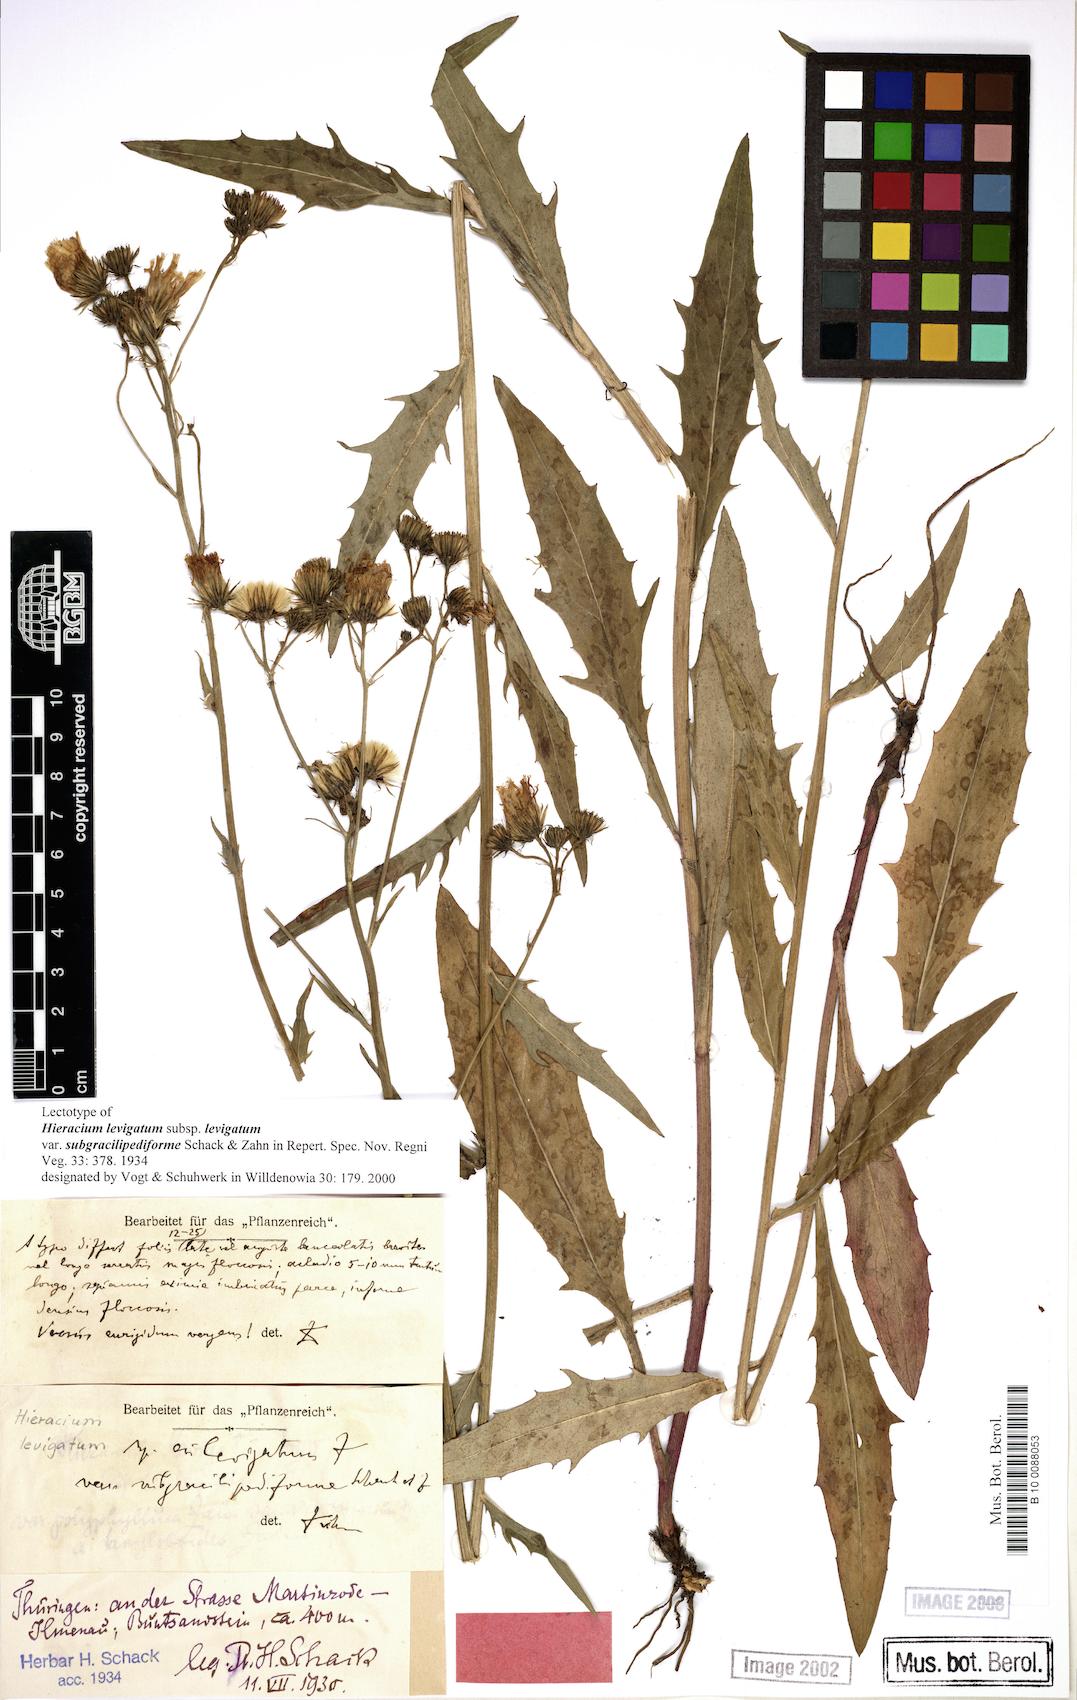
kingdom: Plantae
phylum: Tracheophyta
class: Magnoliopsida
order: Asterales
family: Asteraceae
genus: Hieracium
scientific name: Hieracium laevigatum
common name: Smooth hawkweed
